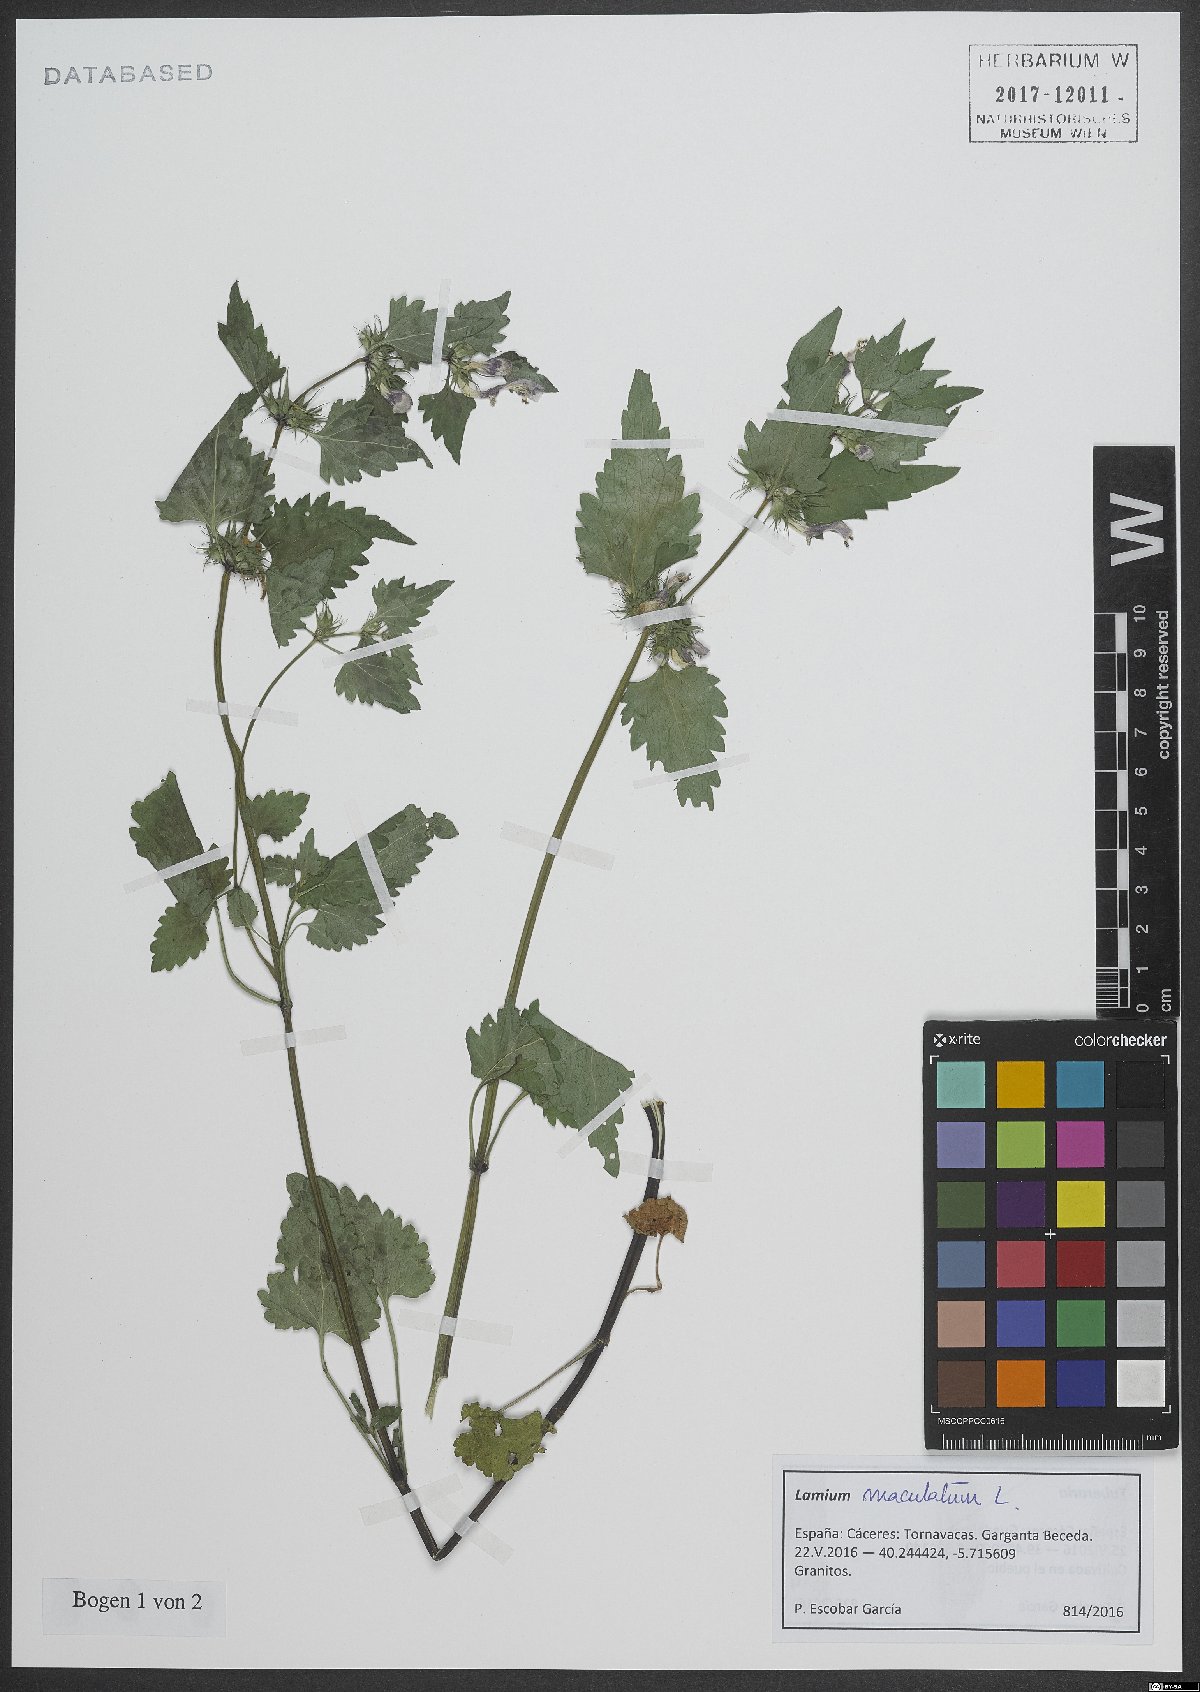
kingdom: Plantae
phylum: Tracheophyta
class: Magnoliopsida
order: Lamiales
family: Lamiaceae
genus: Lamium
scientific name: Lamium maculatum
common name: Spotted dead-nettle
